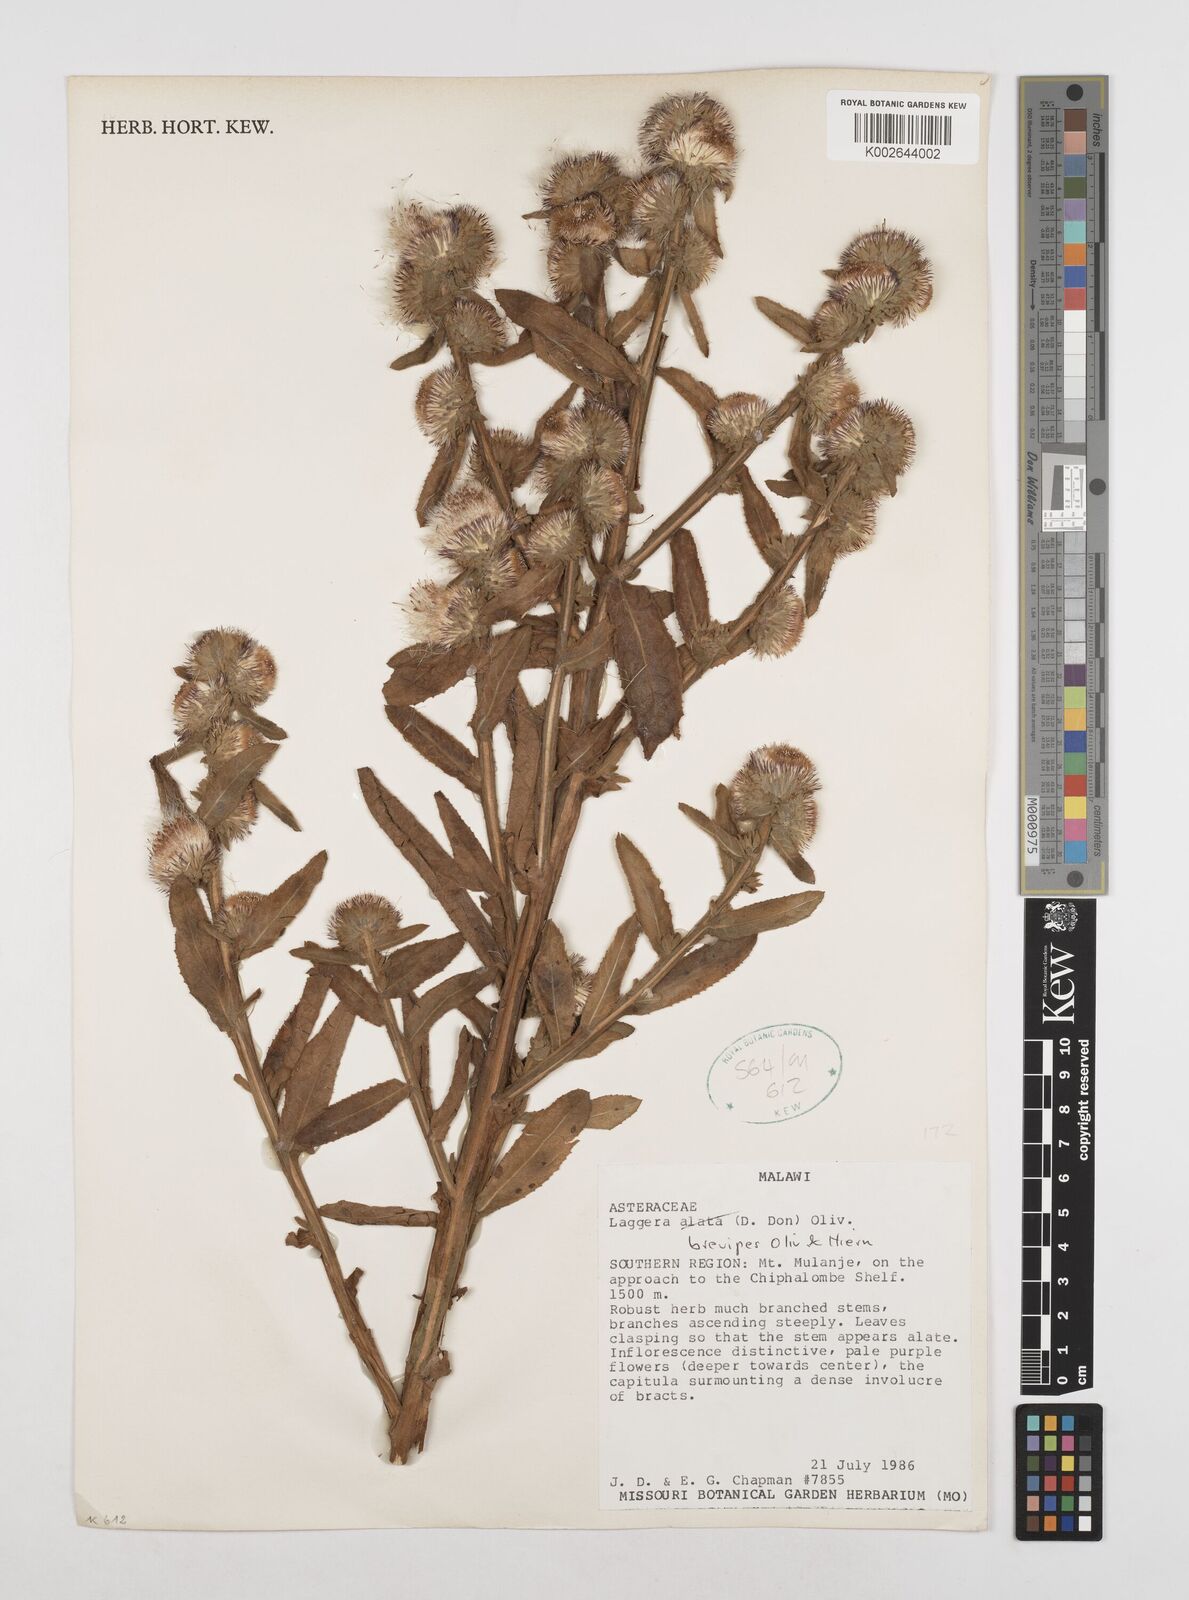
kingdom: Plantae
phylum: Tracheophyta
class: Magnoliopsida
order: Asterales
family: Asteraceae
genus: Laggera
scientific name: Laggera brevipes
